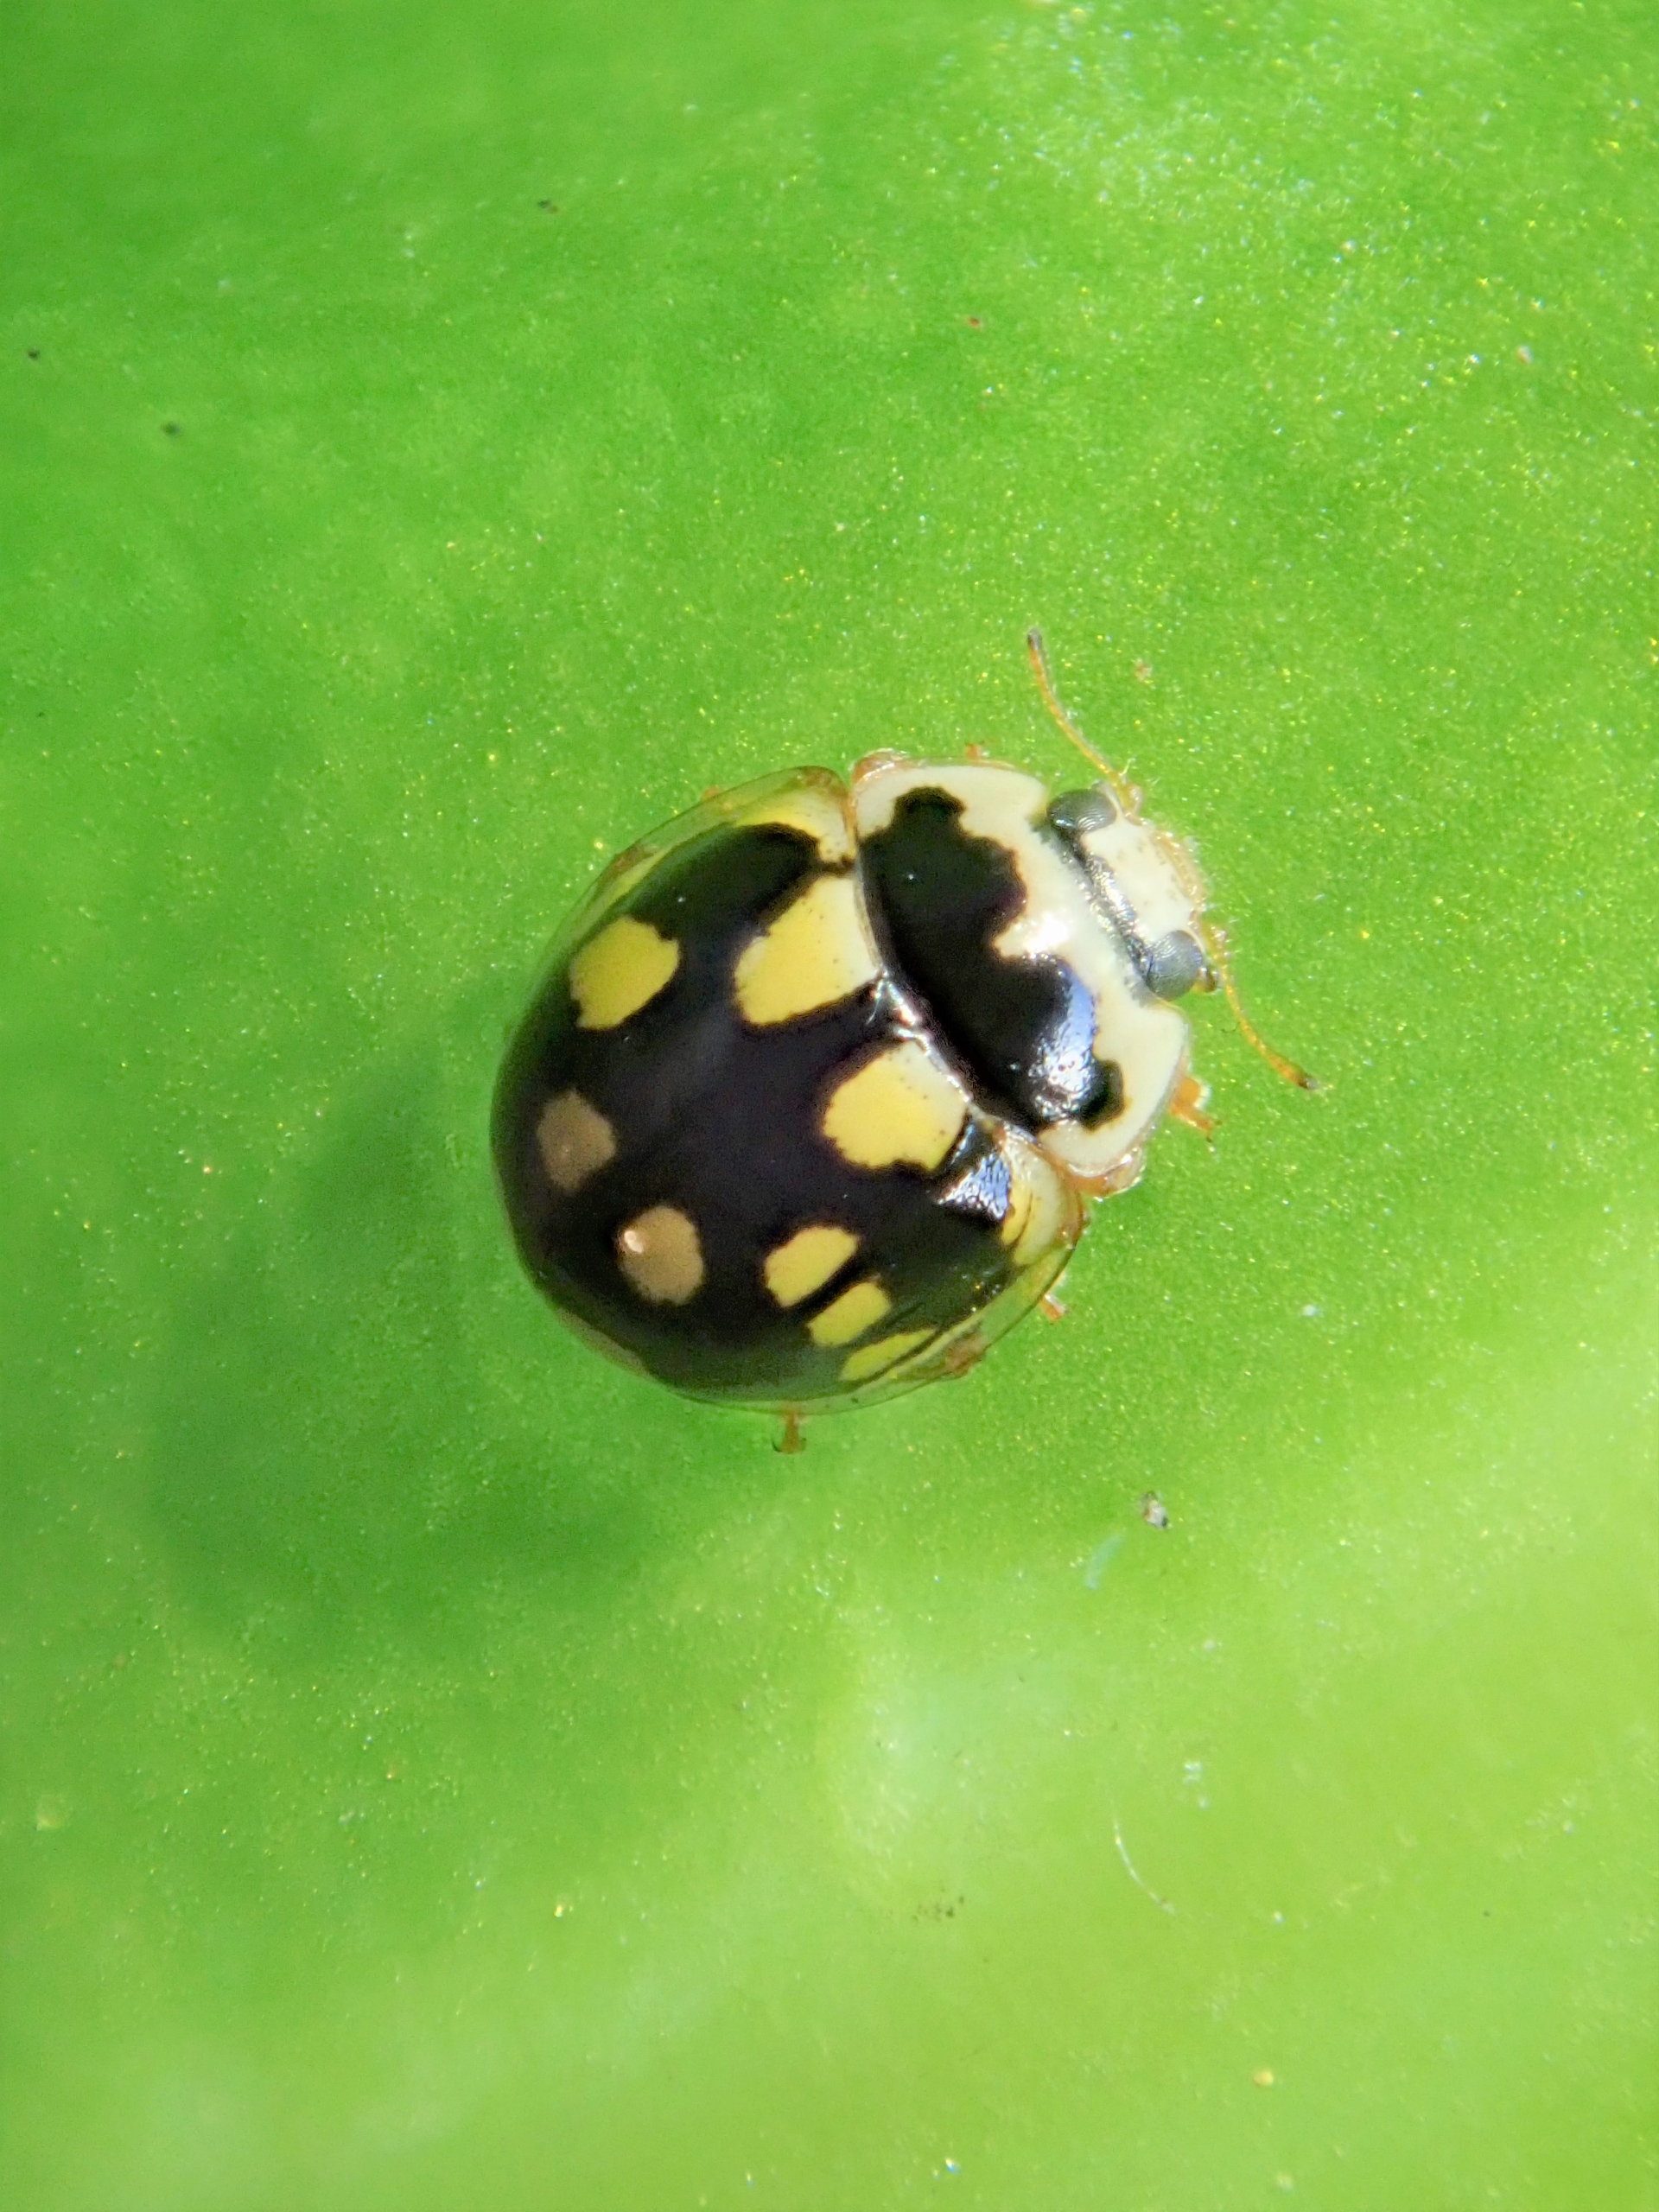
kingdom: Animalia
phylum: Arthropoda
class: Insecta
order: Coleoptera
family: Coccinellidae
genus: Propylaea
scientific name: Propylaea quatuordecimpunctata
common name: Skakbræt
